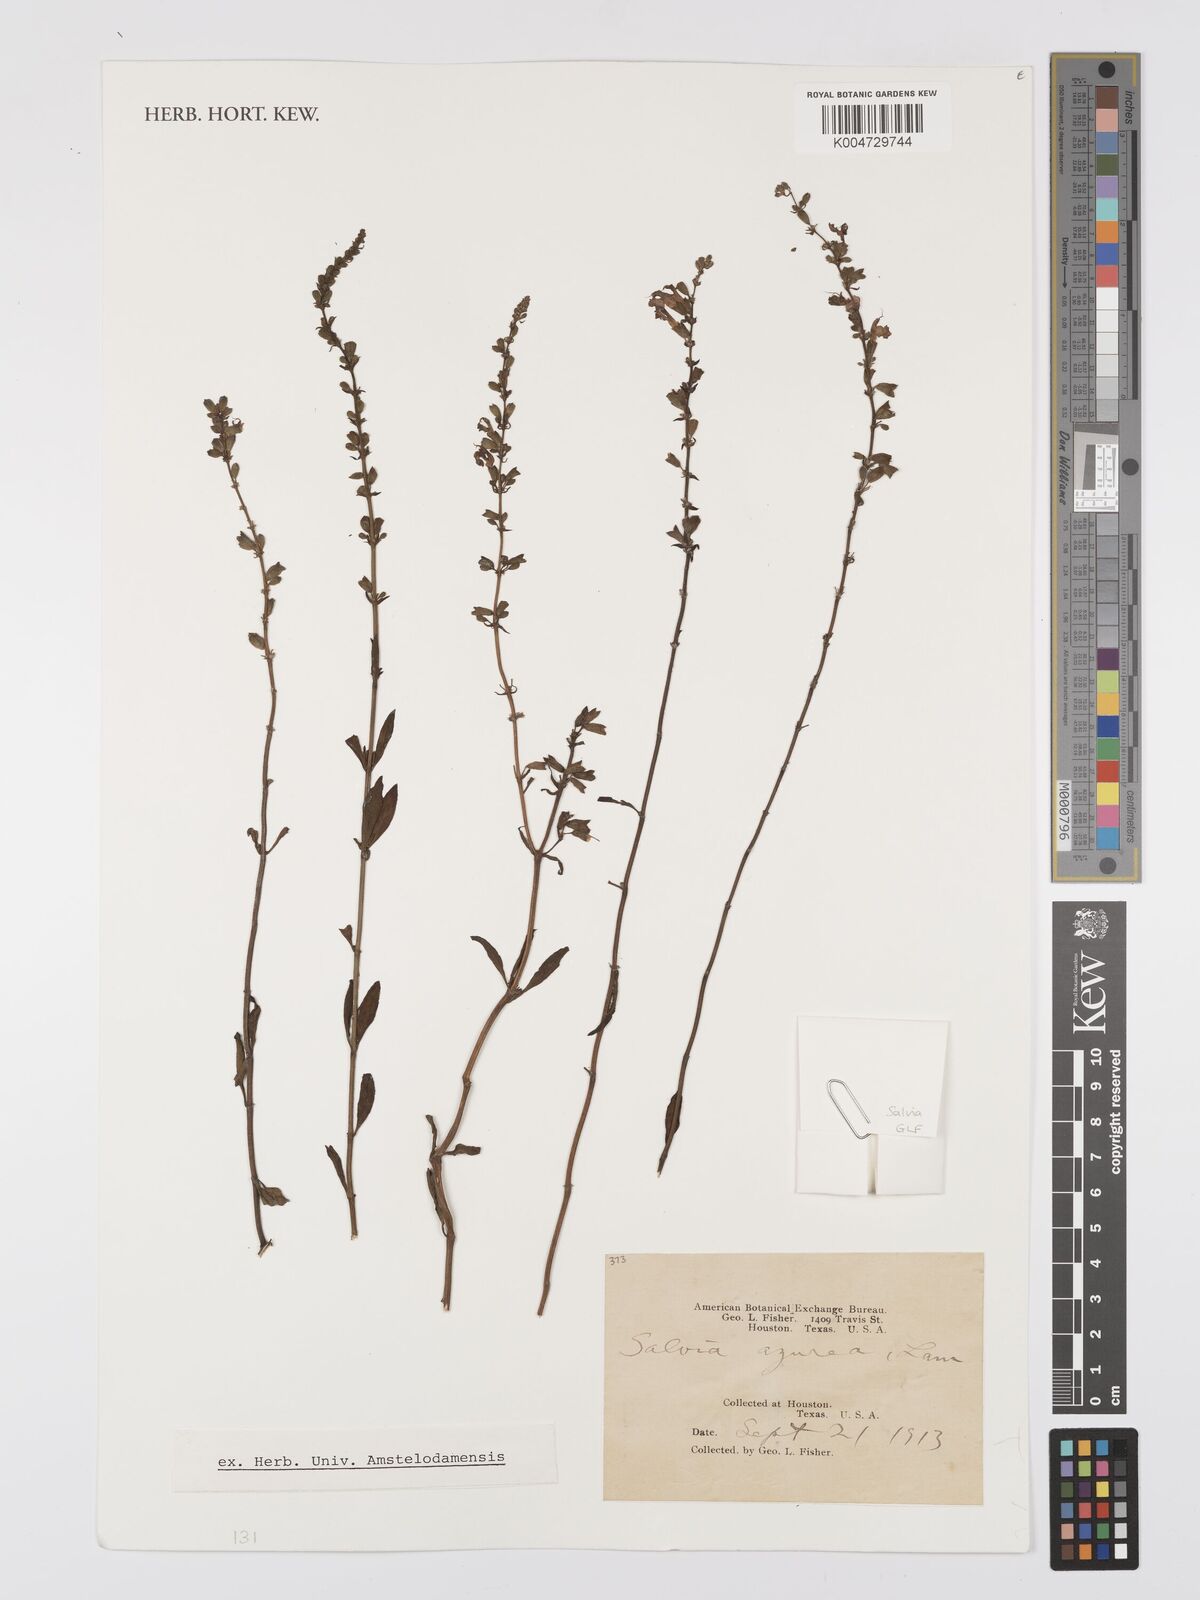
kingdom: Plantae
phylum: Tracheophyta
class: Magnoliopsida
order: Lamiales
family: Lamiaceae
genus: Salvia
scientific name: Salvia azurea
